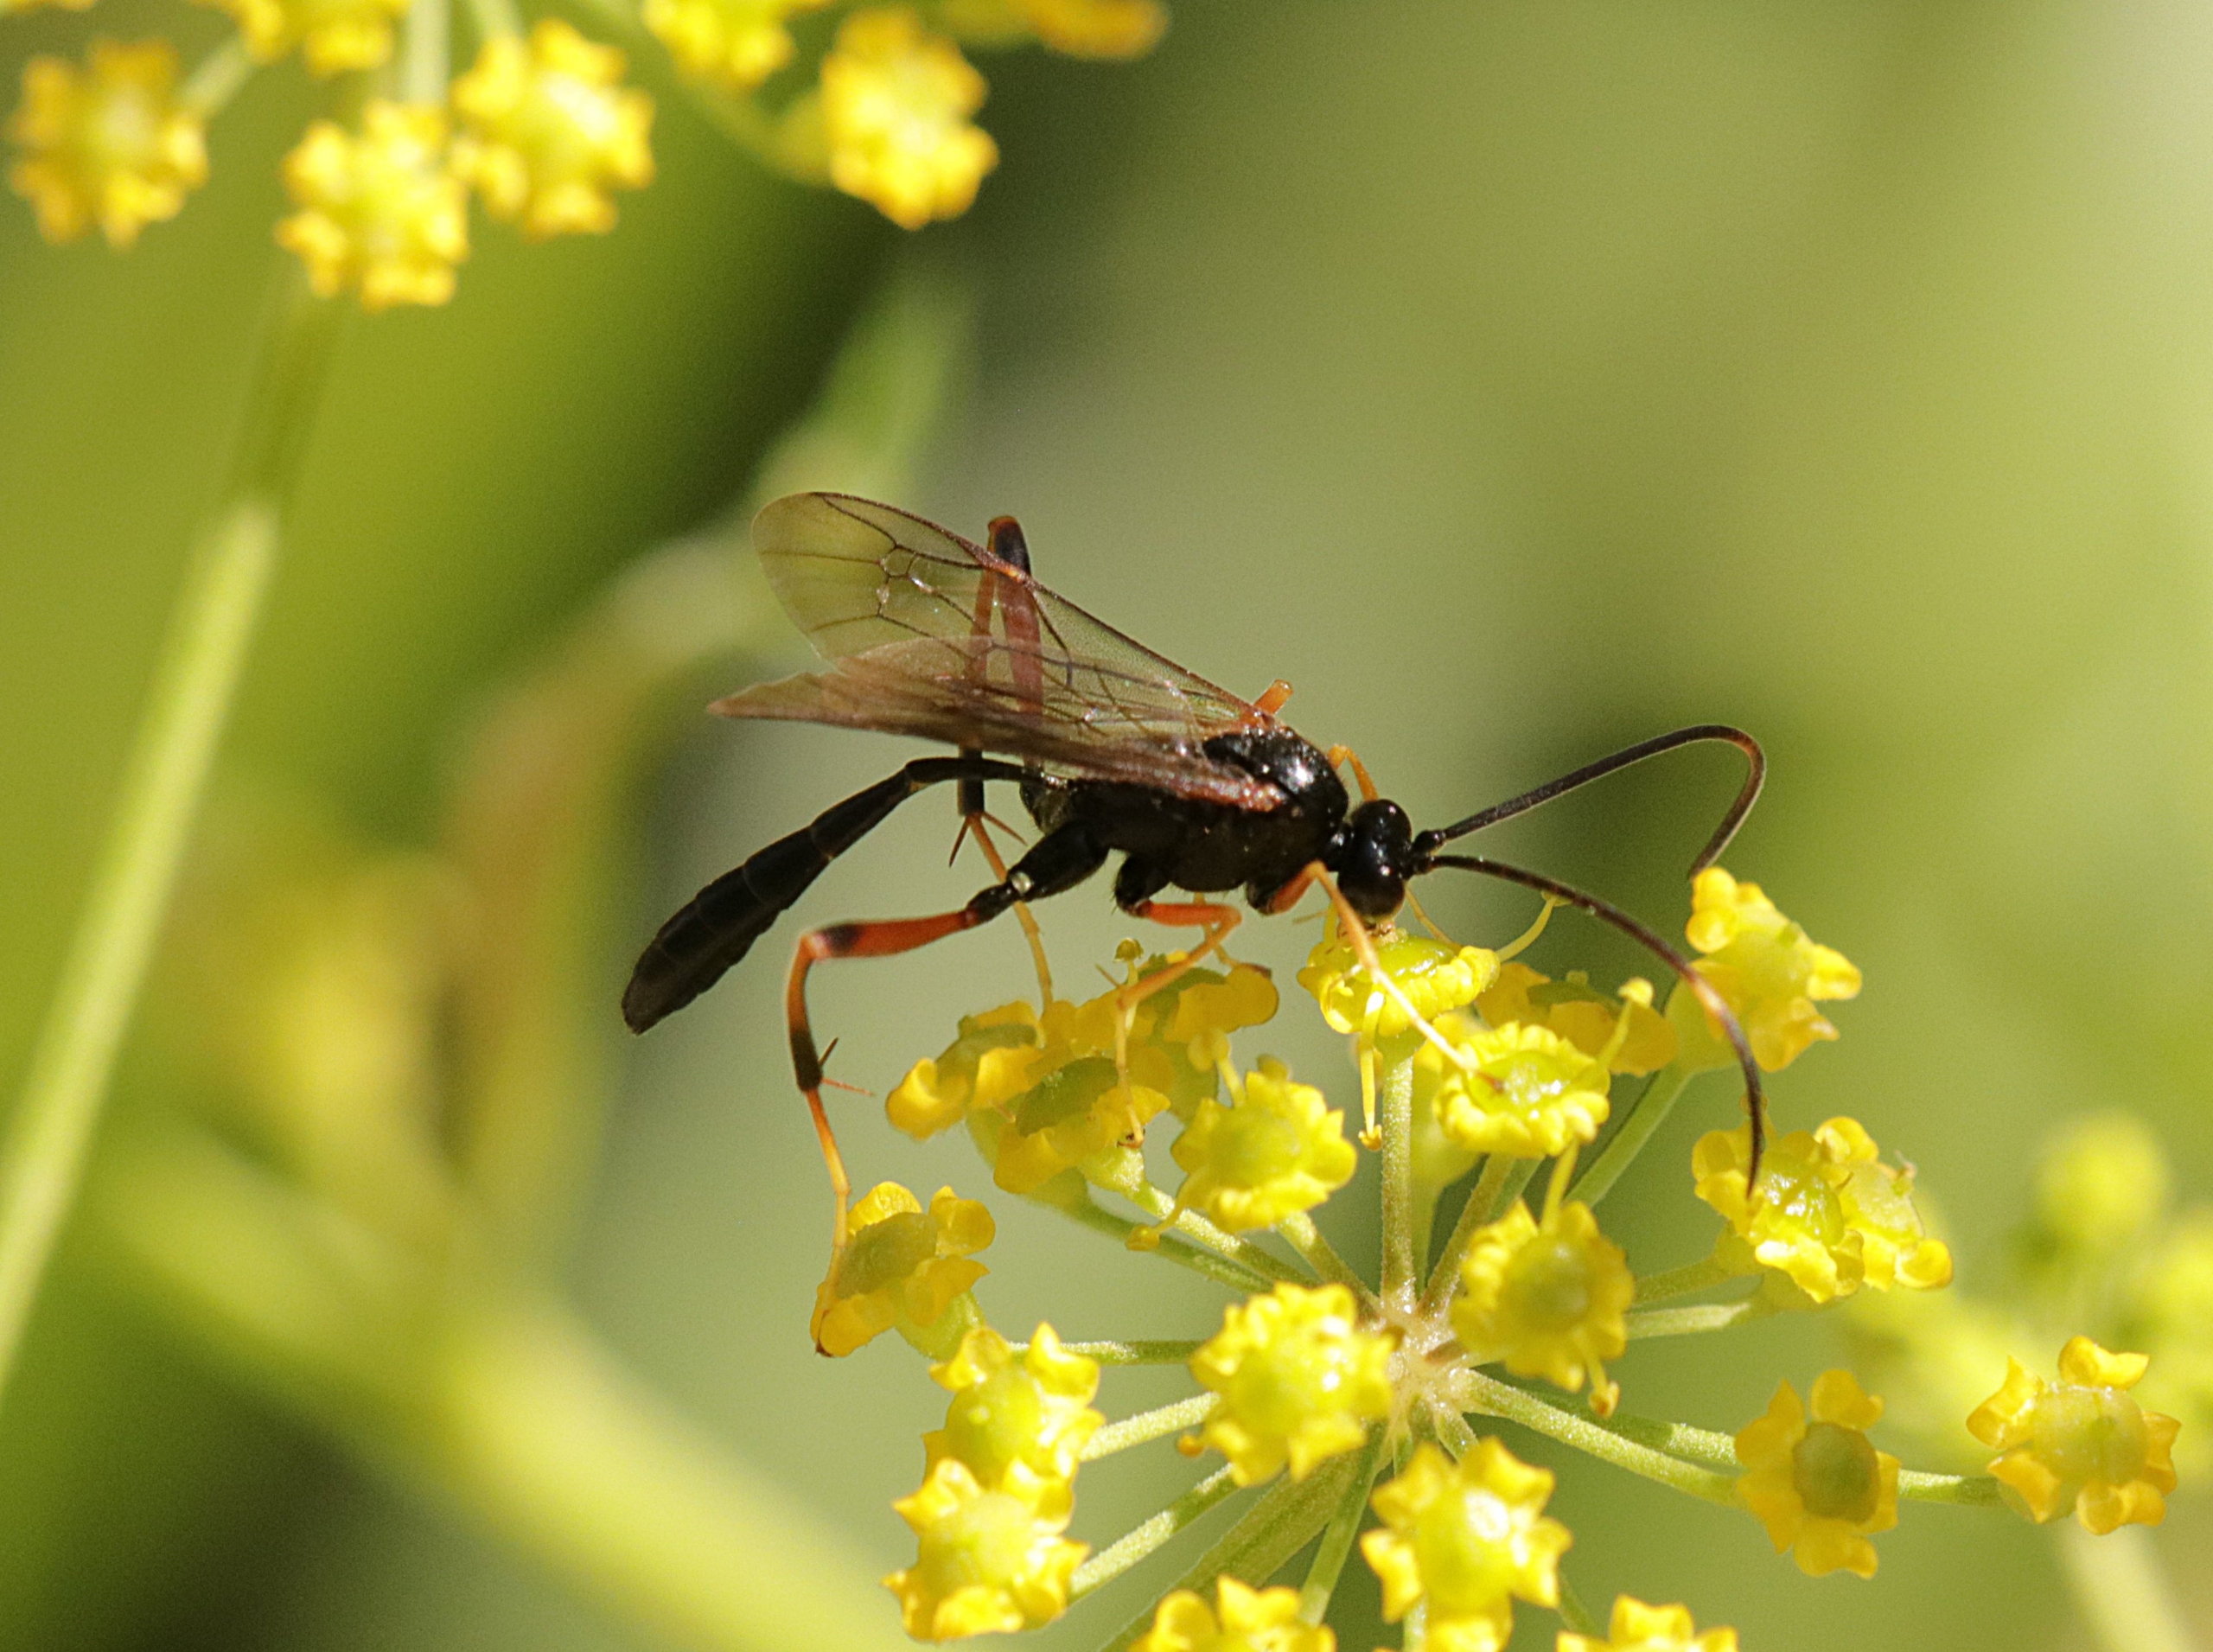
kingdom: Animalia
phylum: Arthropoda
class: Insecta
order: Hymenoptera
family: Ichneumonidae
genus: Acroricnus
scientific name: Acroricnus stylator
